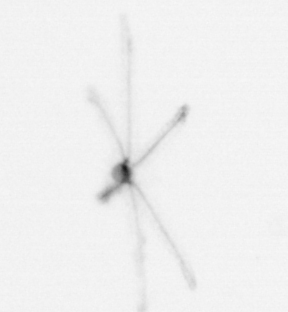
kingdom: Animalia
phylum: Cnidaria
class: Hydrozoa
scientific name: Hydrozoa
